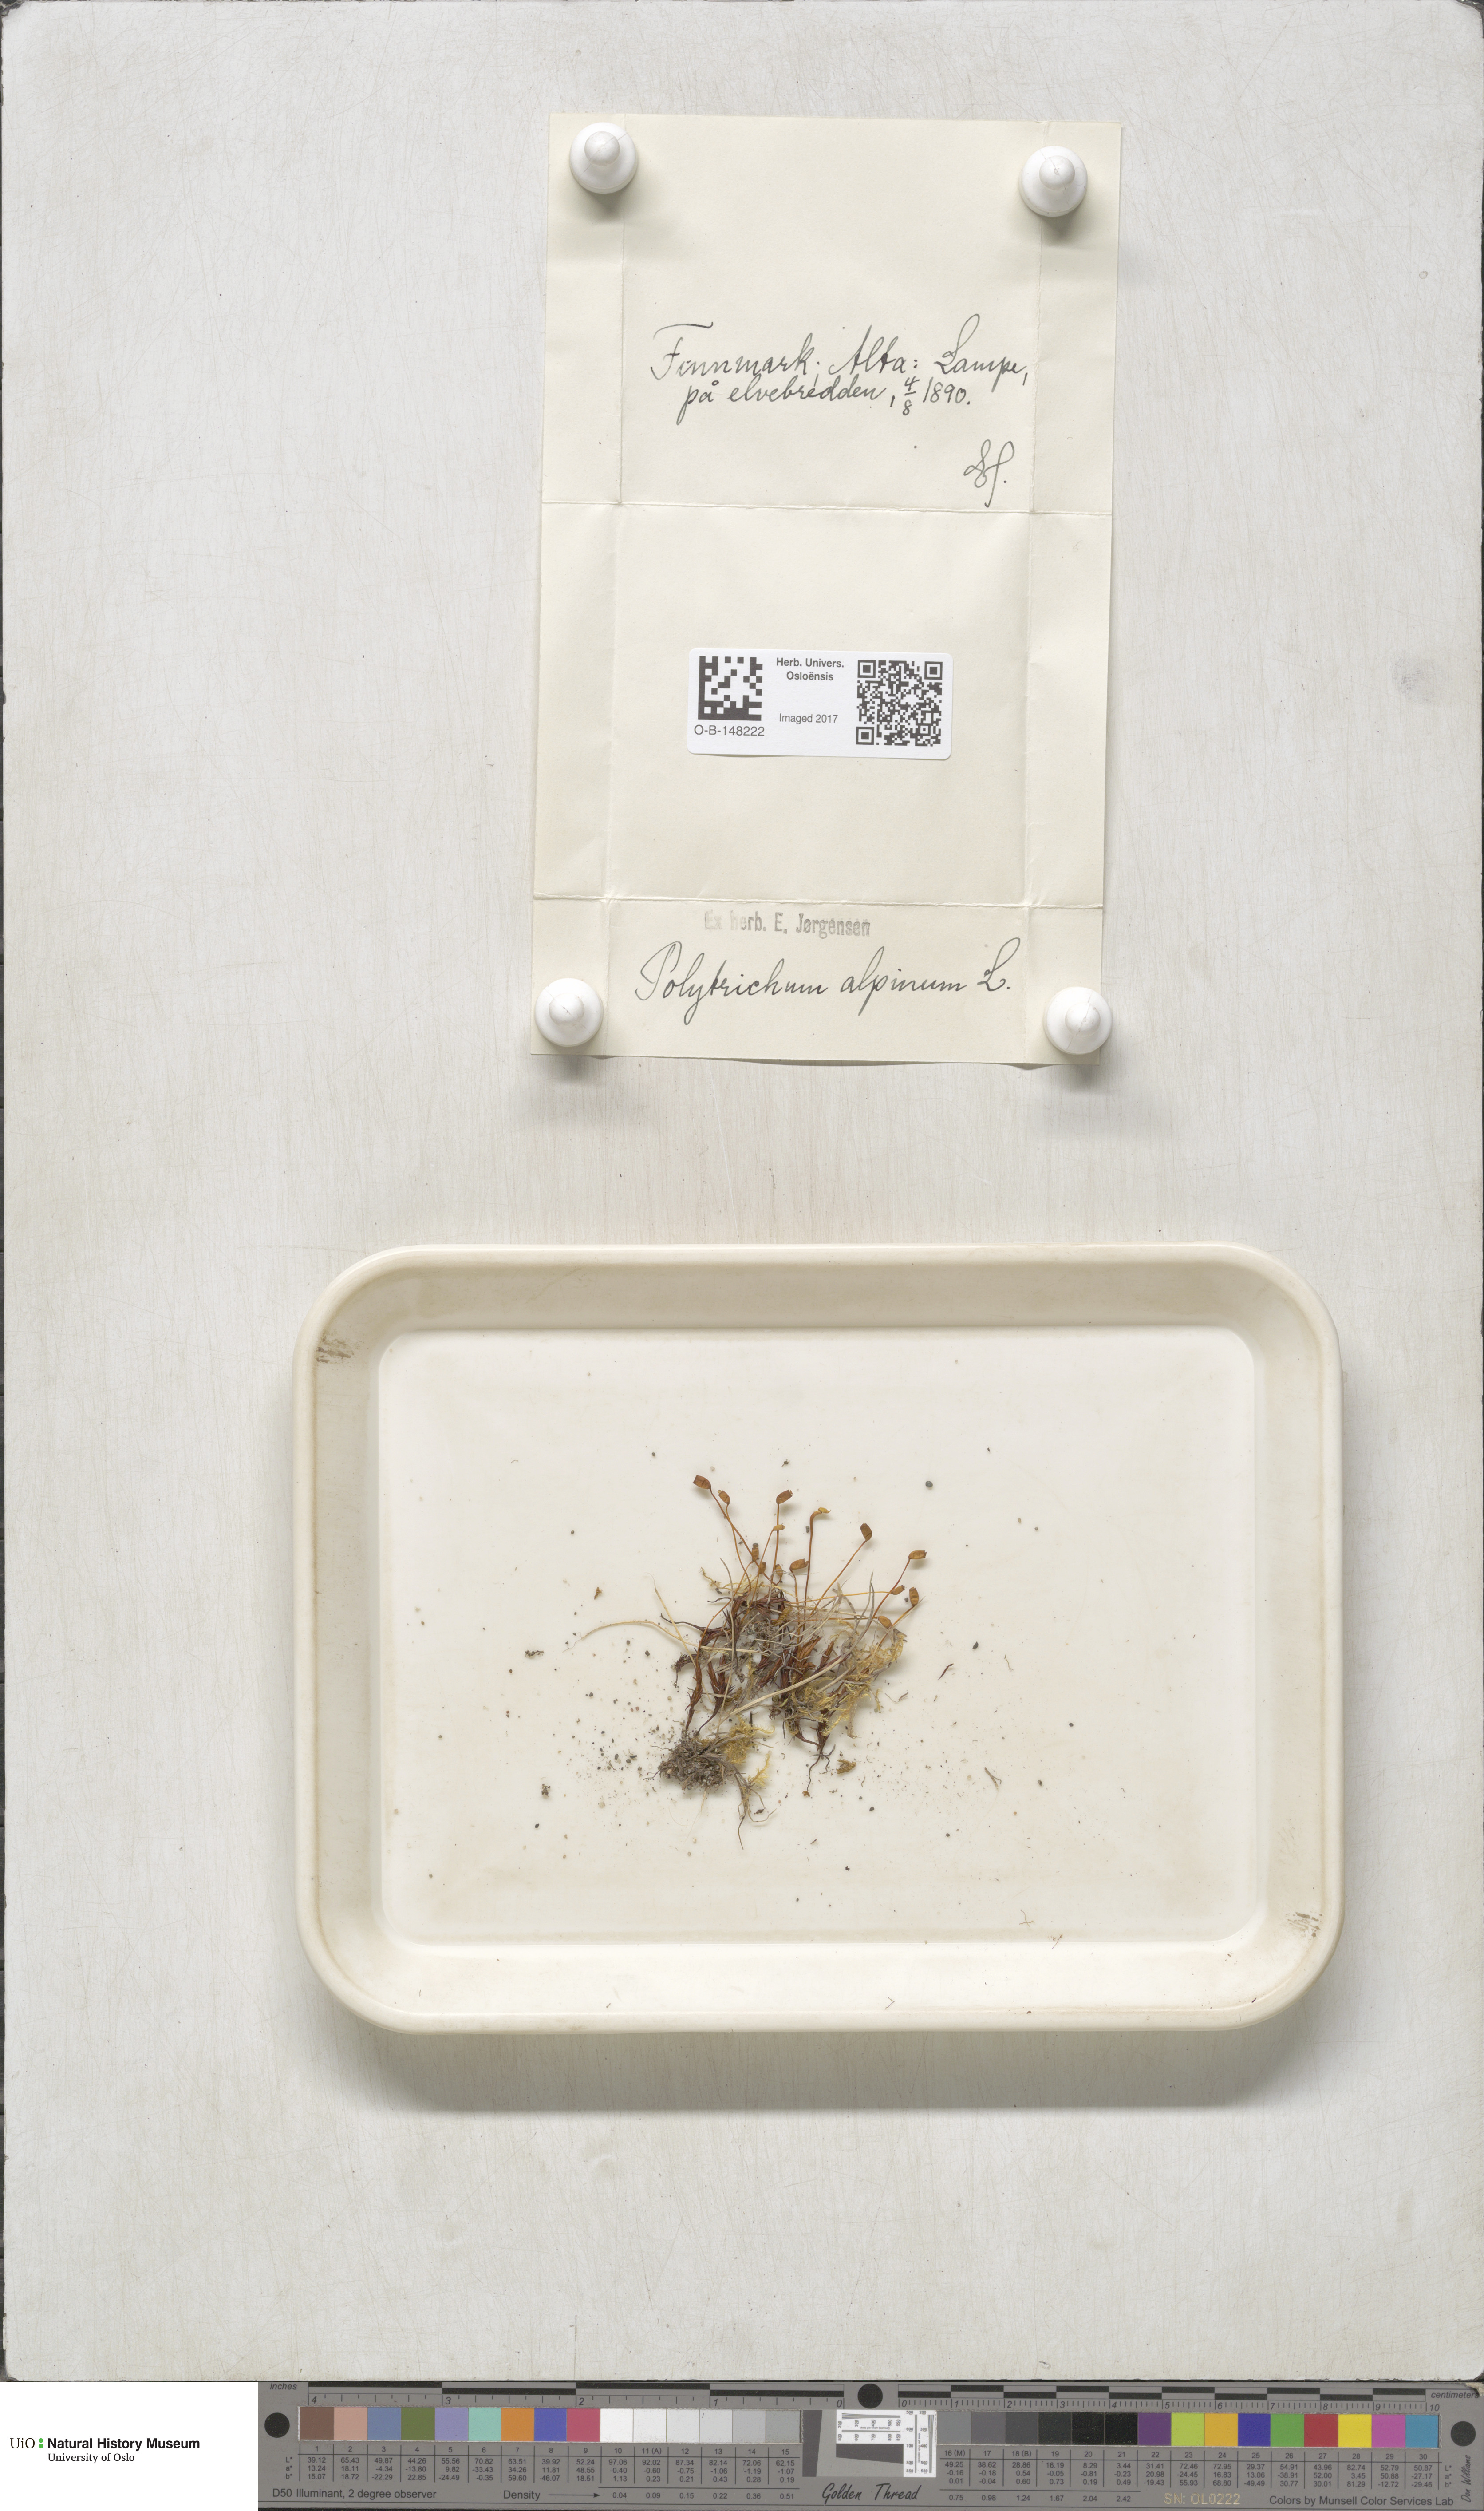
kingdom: Plantae
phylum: Bryophyta
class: Polytrichopsida
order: Polytrichales
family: Polytrichaceae
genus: Polytrichastrum
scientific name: Polytrichastrum alpinum
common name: Alpine haircap
